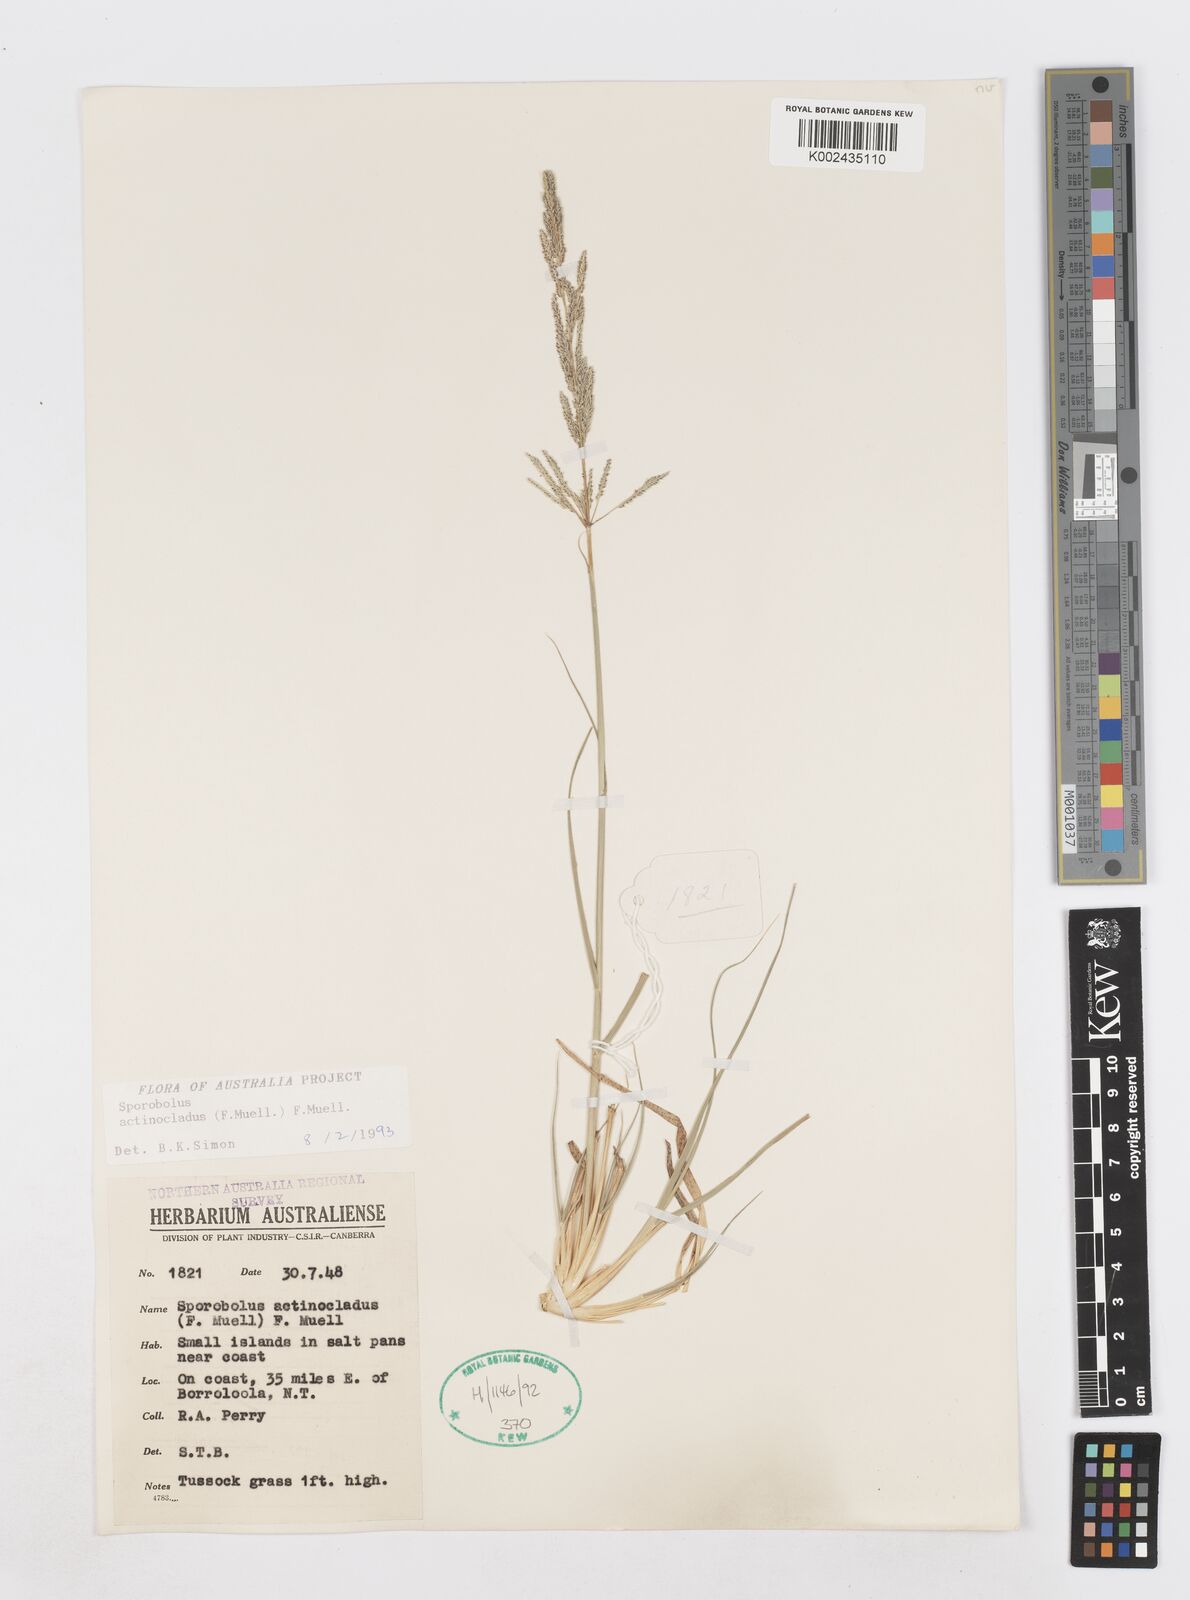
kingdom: Plantae
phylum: Tracheophyta
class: Liliopsida
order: Poales
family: Poaceae
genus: Sporobolus
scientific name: Sporobolus actinocladus
